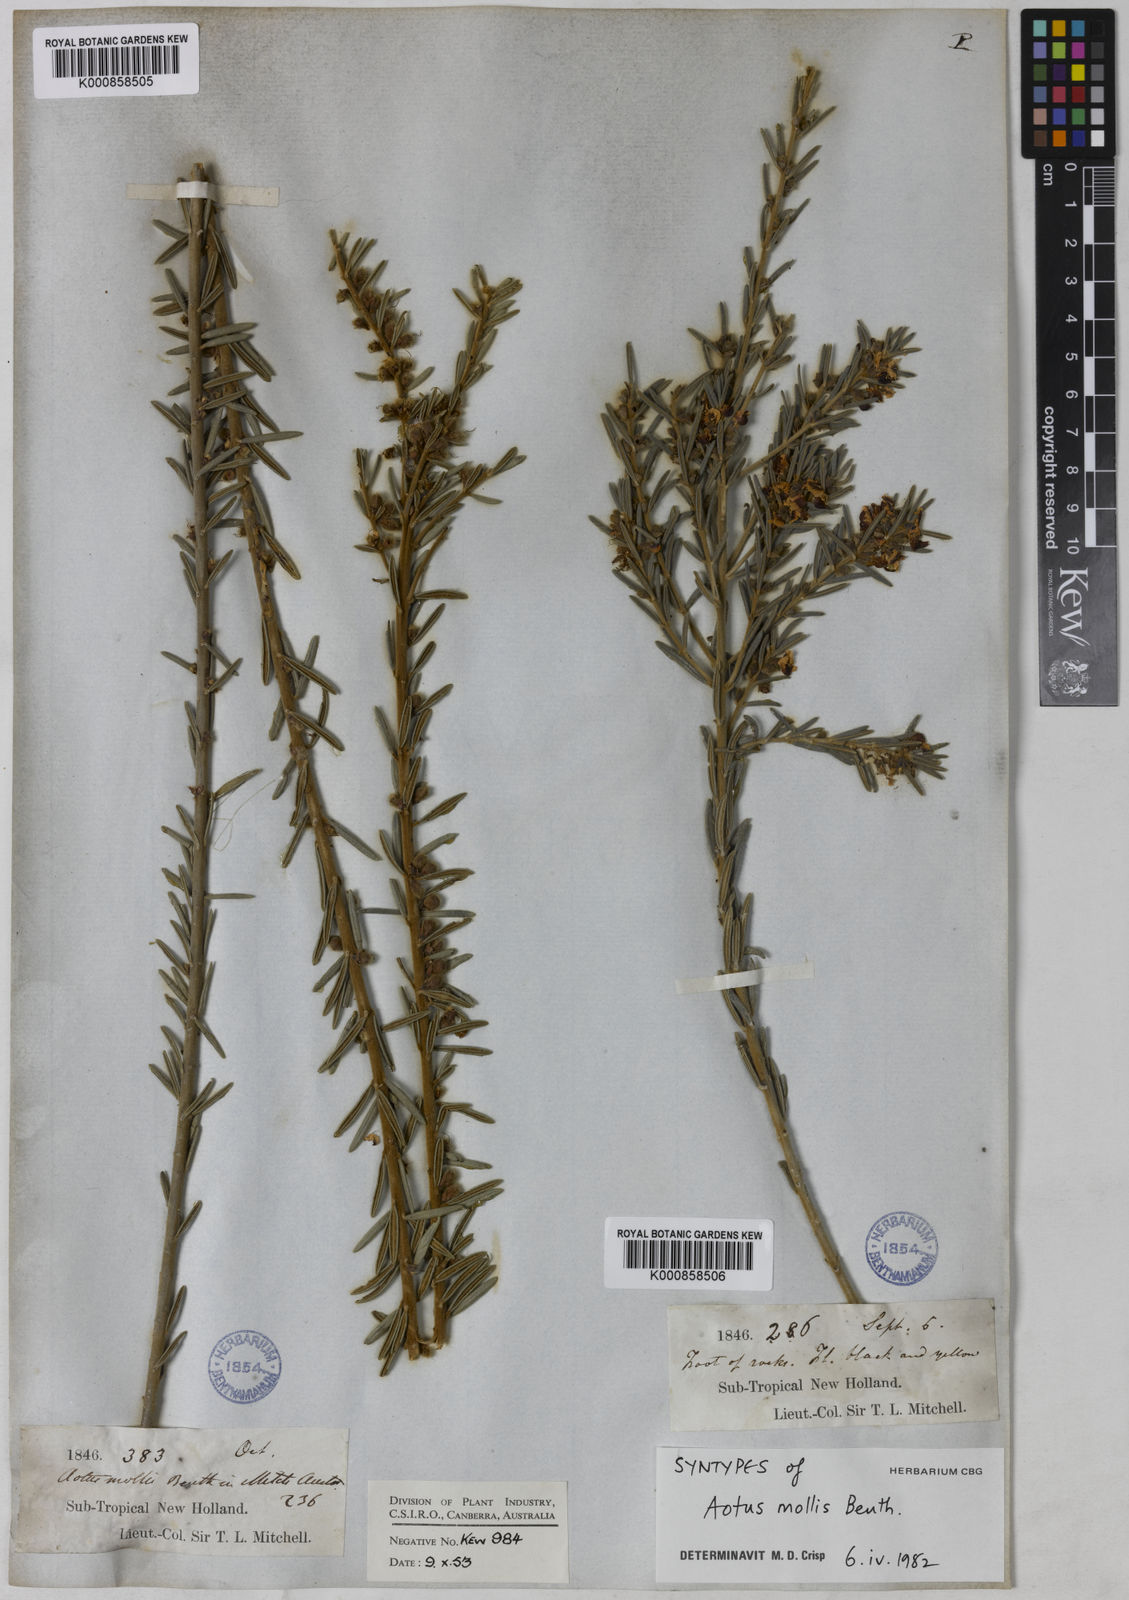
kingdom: Plantae
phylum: Tracheophyta
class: Magnoliopsida
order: Fabales
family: Fabaceae
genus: Aotus
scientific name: Aotus mollis
